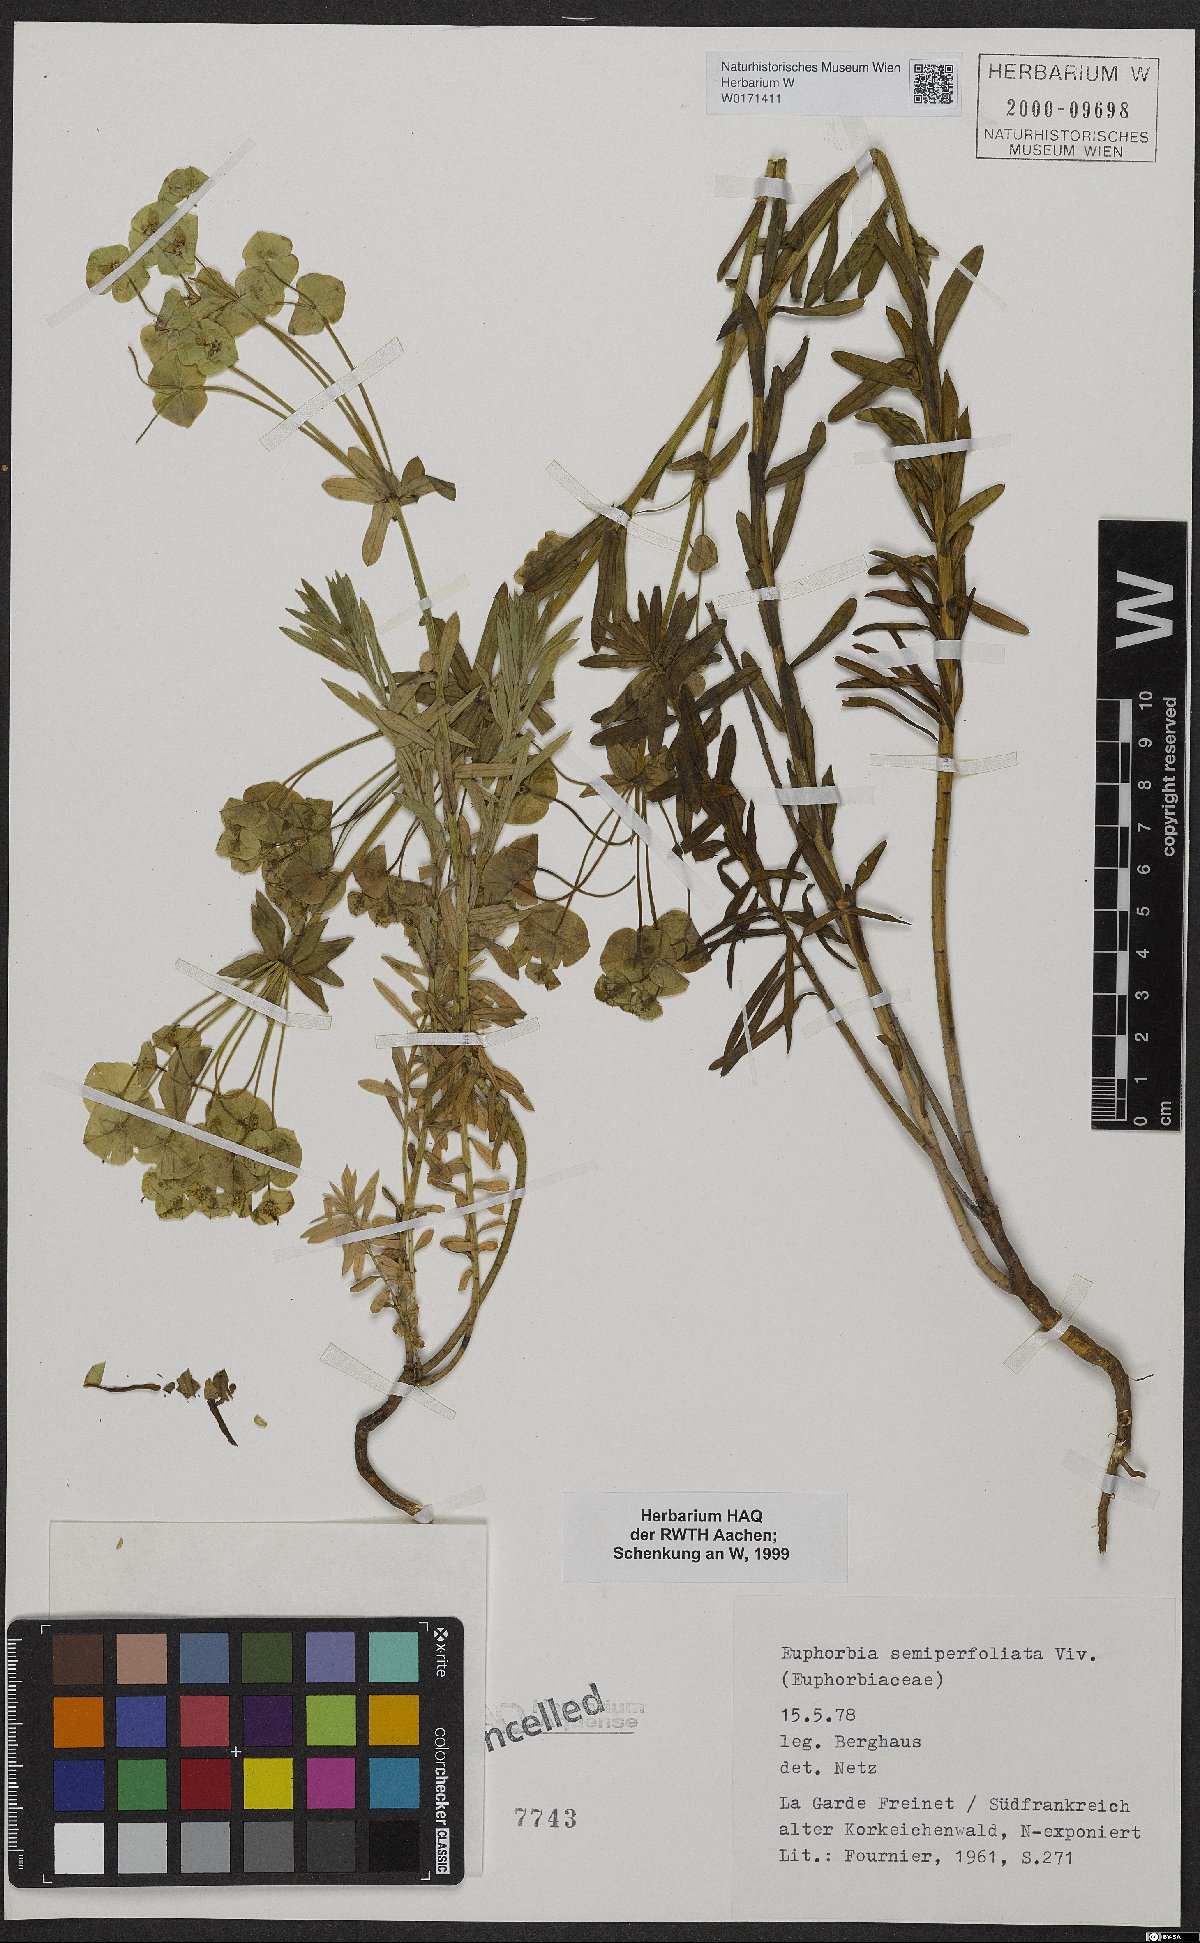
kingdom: Plantae
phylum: Tracheophyta
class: Magnoliopsida
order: Malpighiales
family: Euphorbiaceae
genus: Euphorbia
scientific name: Euphorbia saratoi
